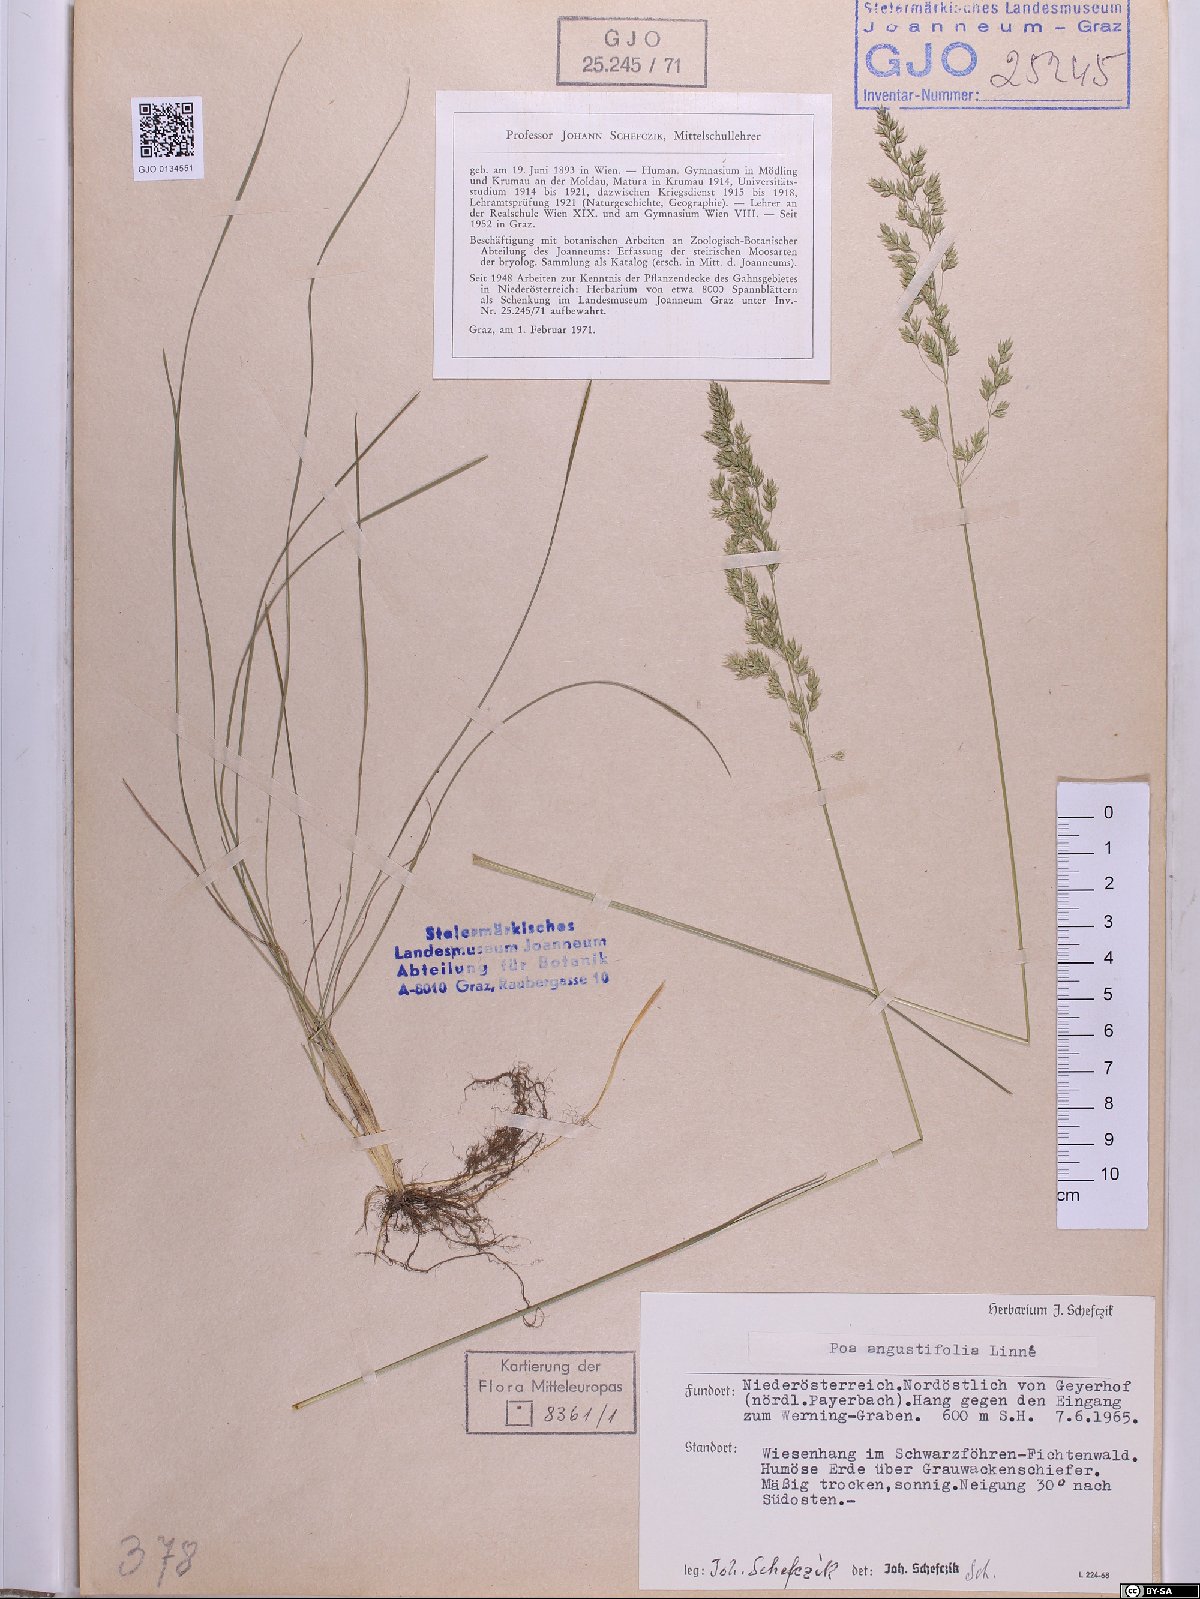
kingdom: Plantae
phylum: Tracheophyta
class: Liliopsida
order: Poales
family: Poaceae
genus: Poa
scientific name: Poa angustifolia
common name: Narrow-leaved meadow-grass
